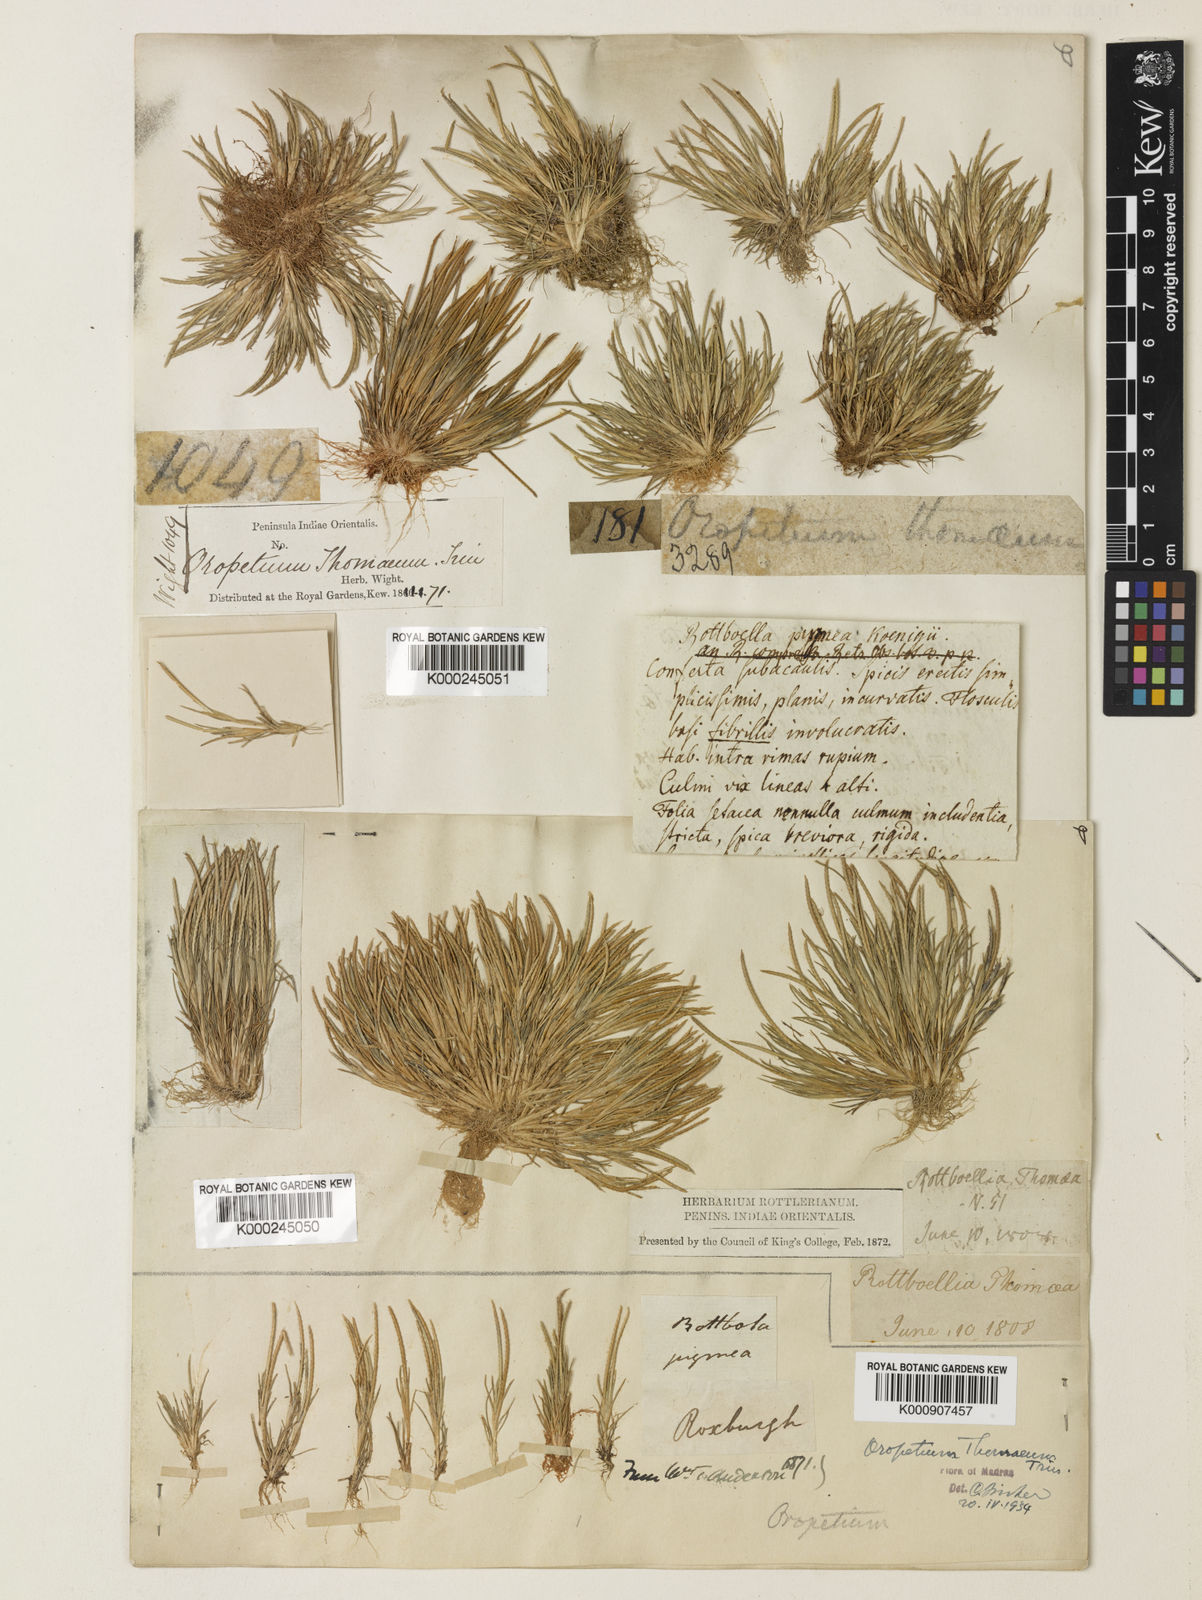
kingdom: Plantae
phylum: Tracheophyta
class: Liliopsida
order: Poales
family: Poaceae
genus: Oropetium
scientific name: Oropetium thomaeum
